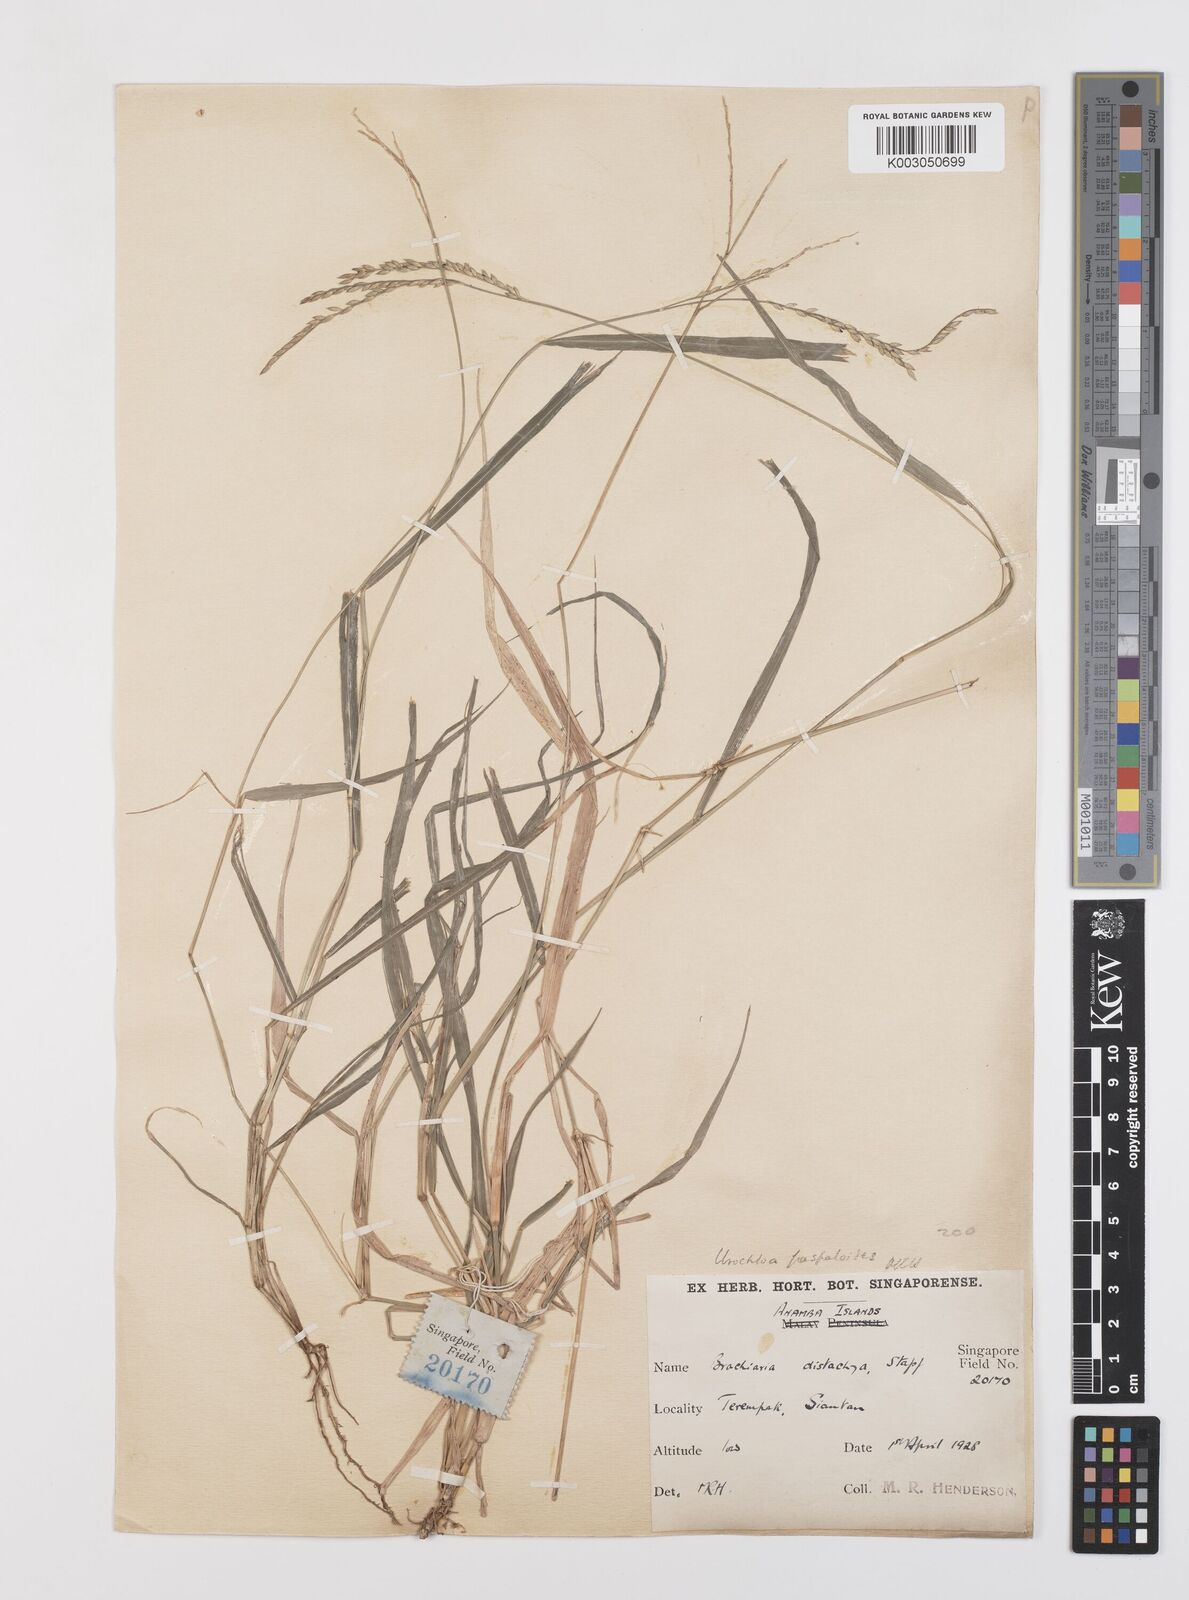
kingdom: Plantae
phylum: Tracheophyta
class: Liliopsida
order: Poales
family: Poaceae
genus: Urochloa
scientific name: Urochloa distachyos
